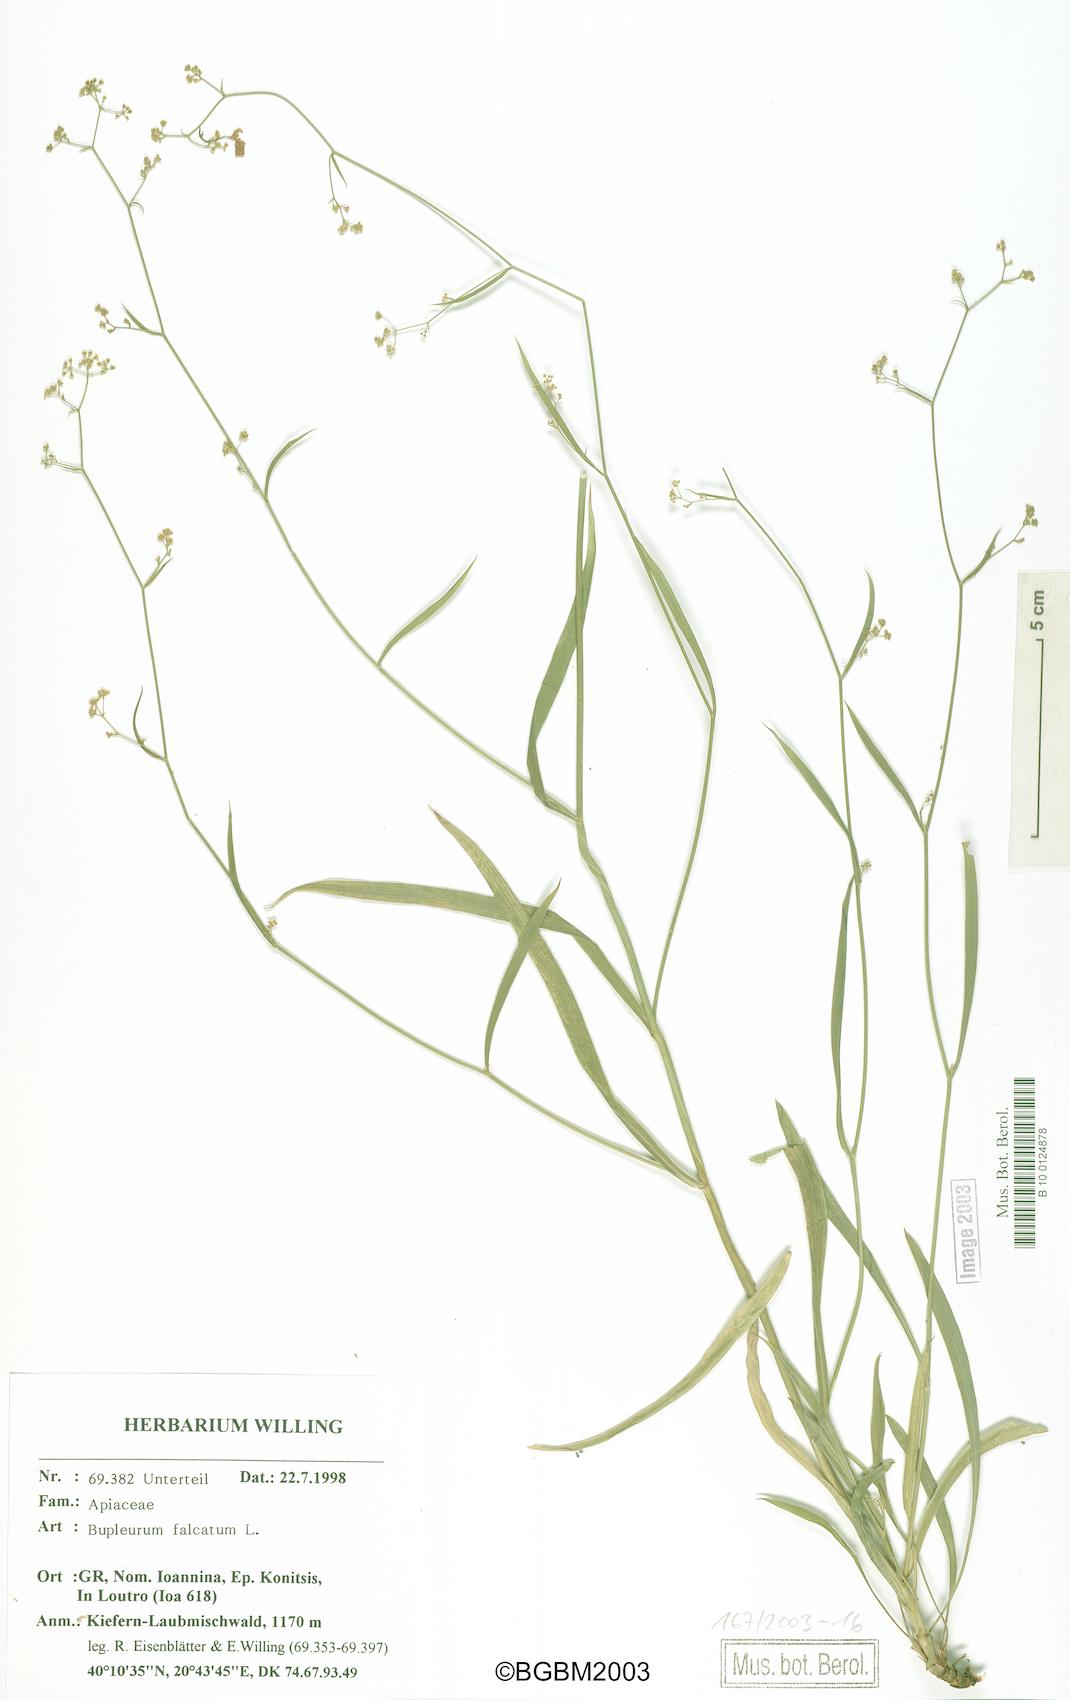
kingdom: Plantae
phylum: Tracheophyta
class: Magnoliopsida
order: Apiales
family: Apiaceae
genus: Bupleurum
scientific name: Bupleurum falcatum
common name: Sickle-leaved hare's-ear
